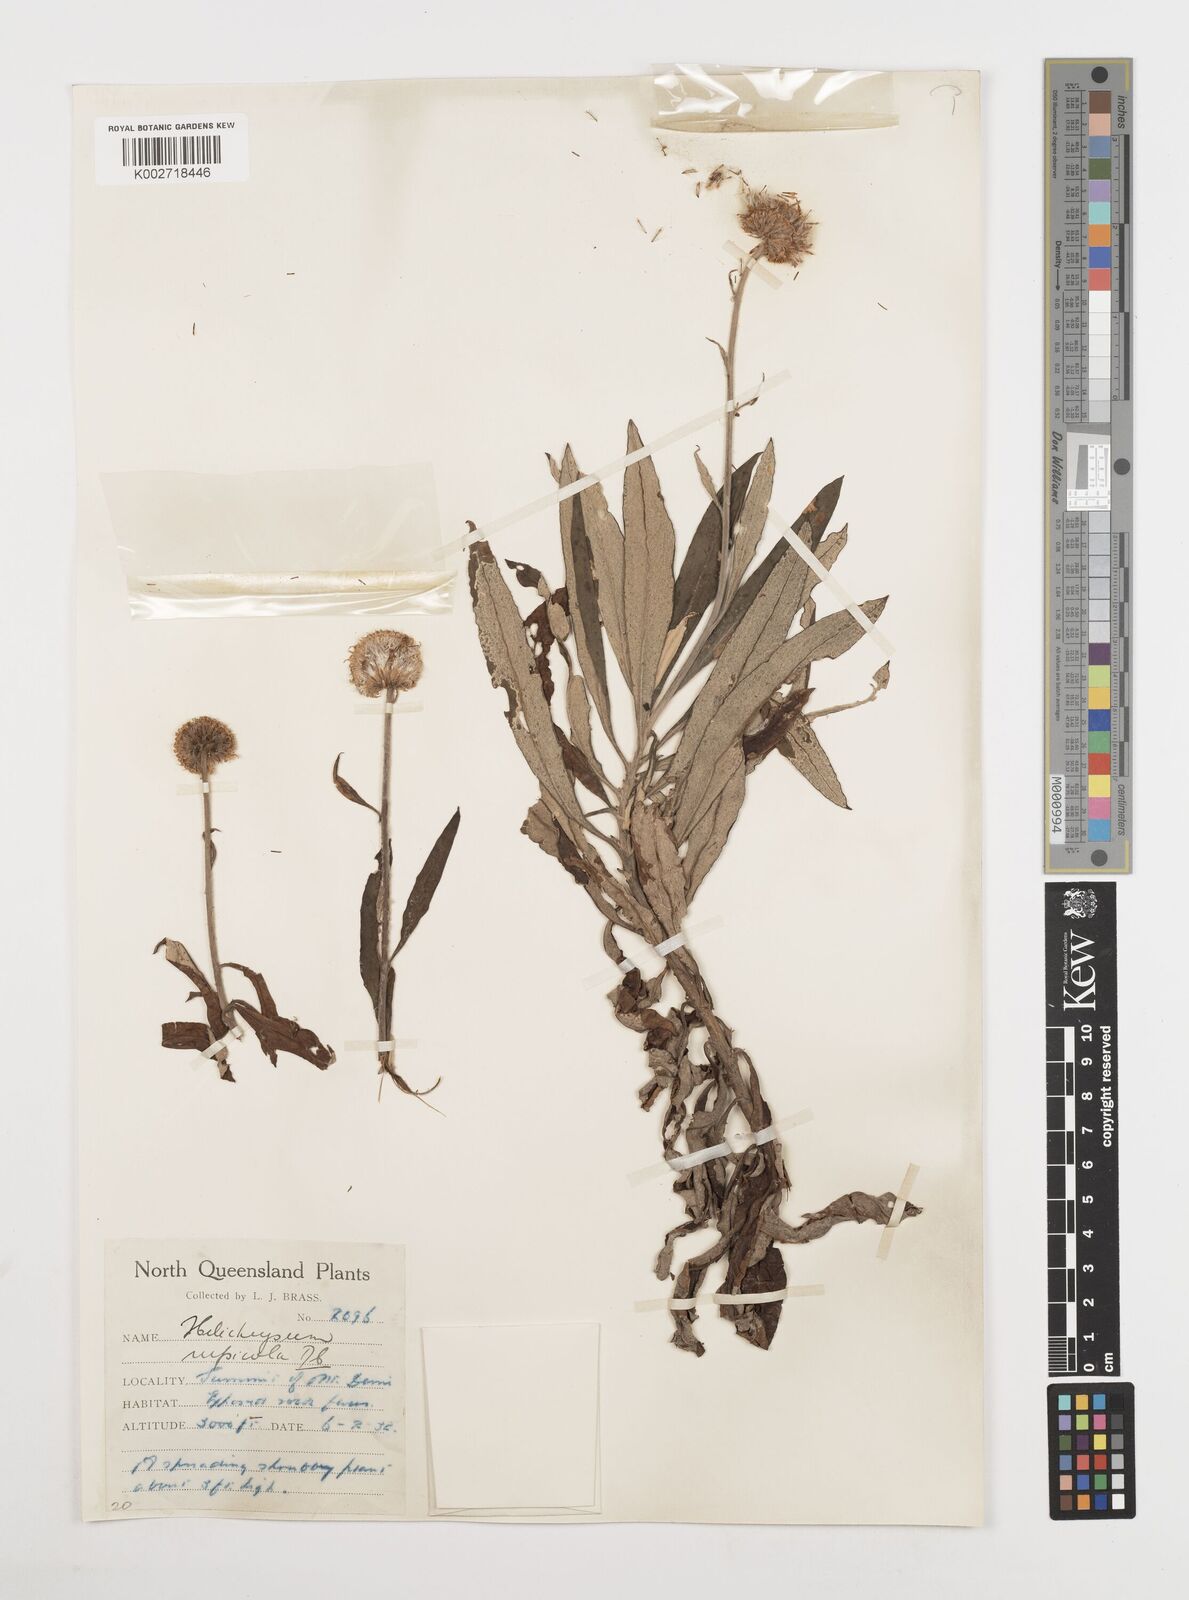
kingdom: Plantae
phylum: Tracheophyta
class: Magnoliopsida
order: Asterales
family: Asteraceae
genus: Coronidium
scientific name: Coronidium rupicola
